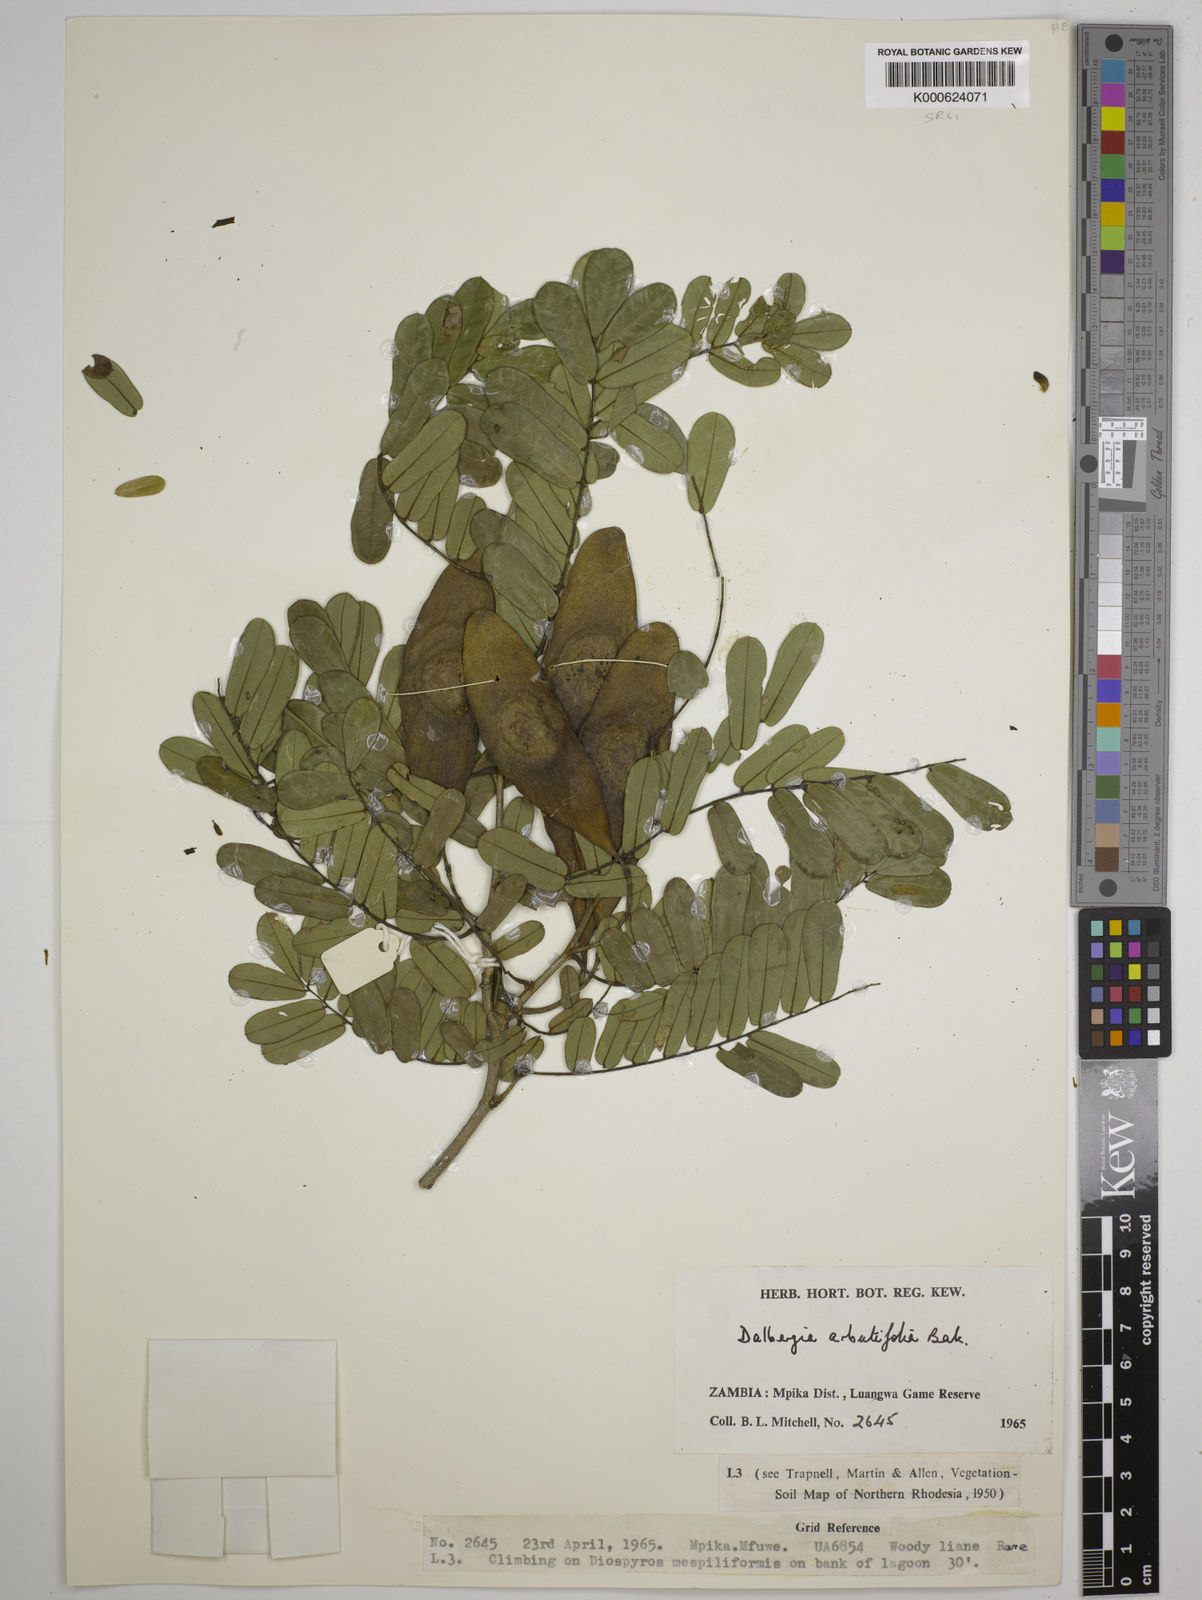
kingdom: Plantae
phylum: Tracheophyta
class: Magnoliopsida
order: Fabales
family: Fabaceae
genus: Dalbergia
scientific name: Dalbergia arbutifolia
